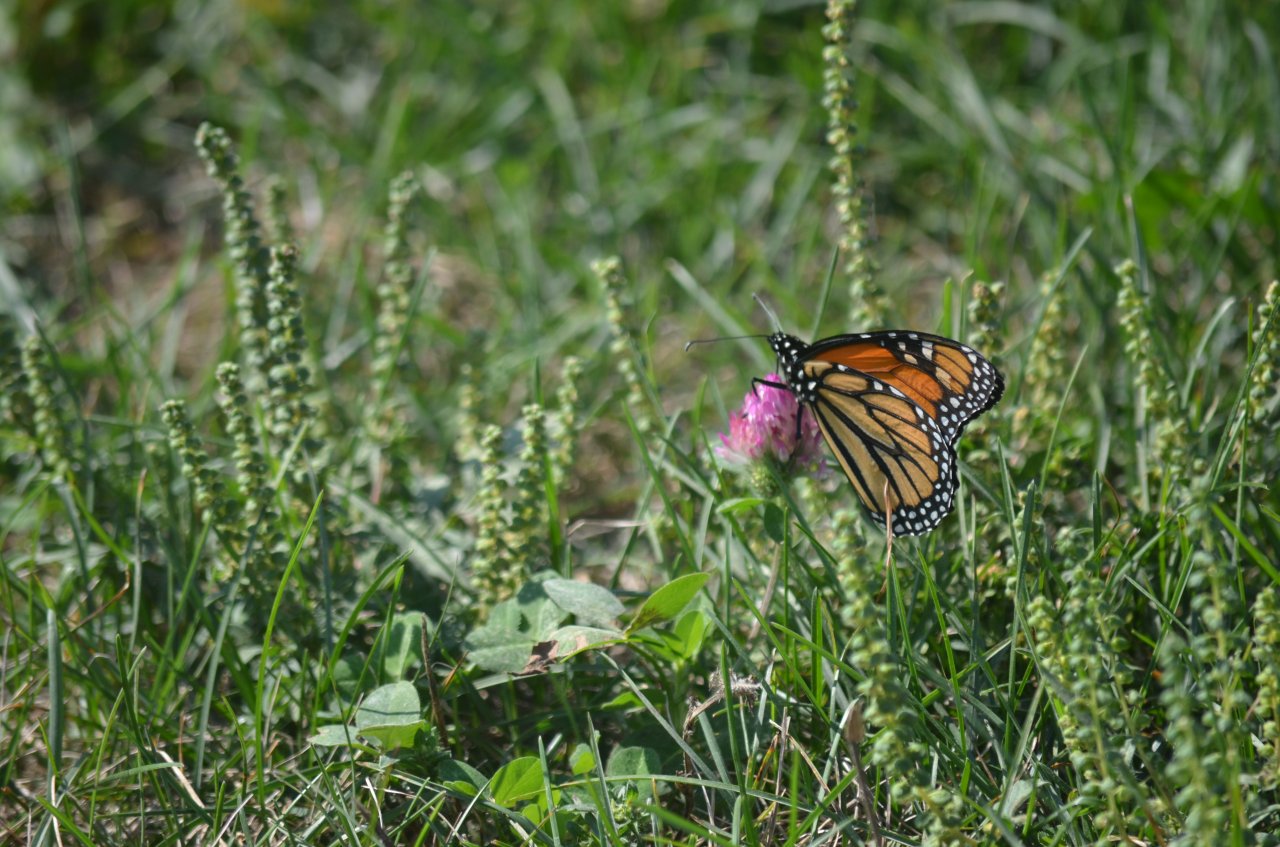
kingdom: Animalia
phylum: Arthropoda
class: Insecta
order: Lepidoptera
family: Nymphalidae
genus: Danaus
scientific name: Danaus plexippus
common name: Monarch
